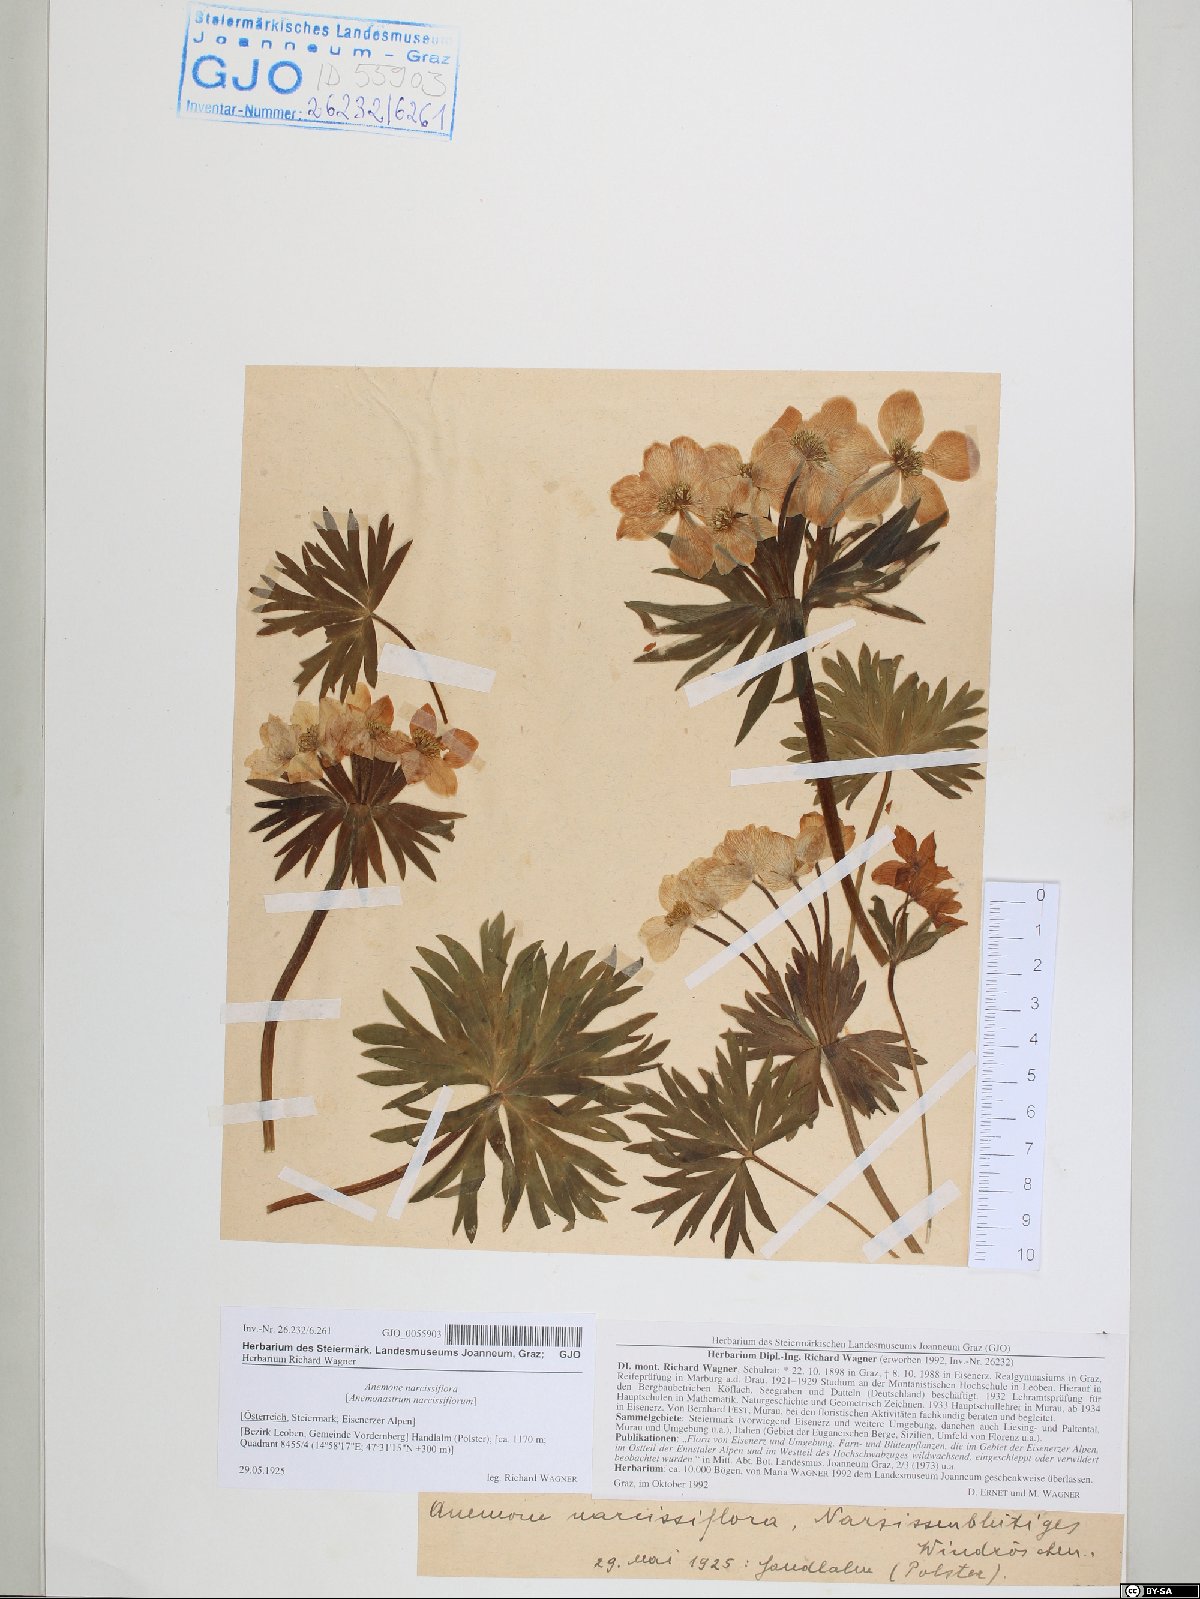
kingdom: Plantae
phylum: Tracheophyta
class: Magnoliopsida
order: Ranunculales
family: Ranunculaceae
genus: Anemonastrum
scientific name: Anemonastrum narcissiflorum
